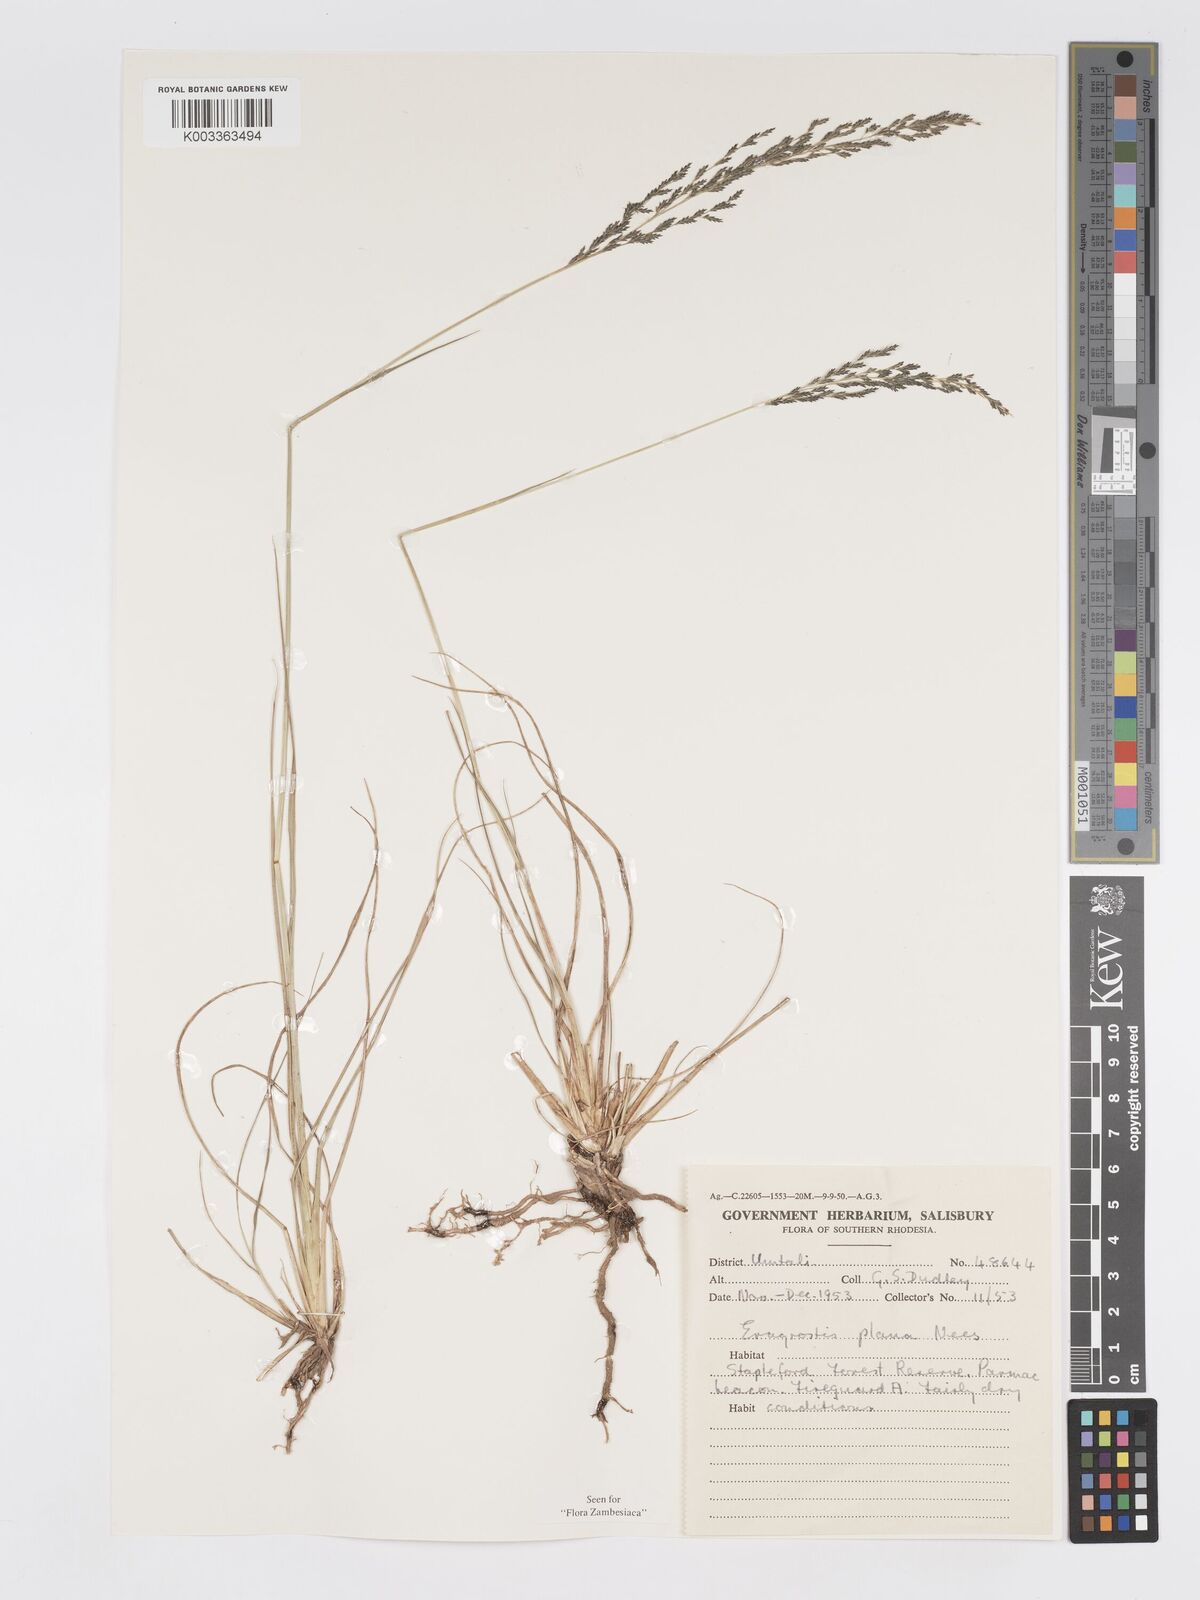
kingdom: Plantae
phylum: Tracheophyta
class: Liliopsida
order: Poales
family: Poaceae
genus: Eragrostis
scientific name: Eragrostis plana
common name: South african lovegrass
